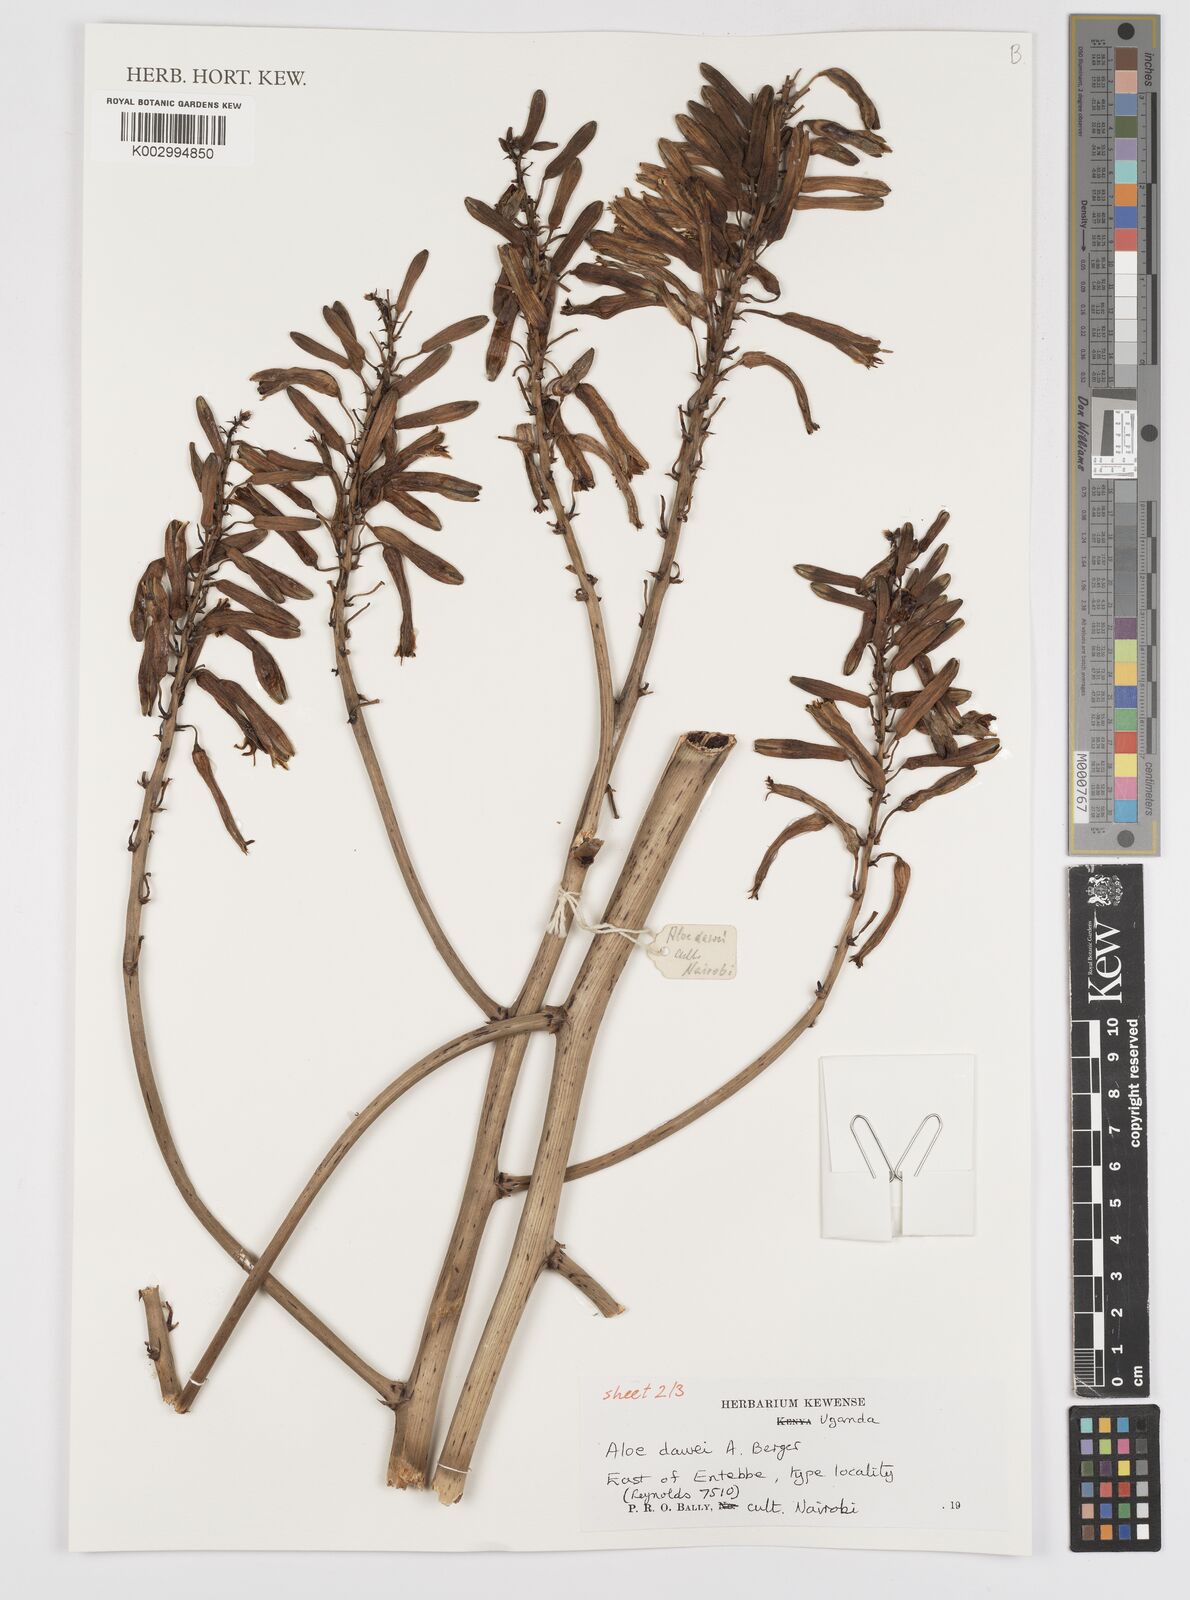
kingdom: Plantae
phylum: Tracheophyta
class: Liliopsida
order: Asparagales
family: Asphodelaceae
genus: Aloe
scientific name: Aloe dawei
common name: Orange flame aloe
